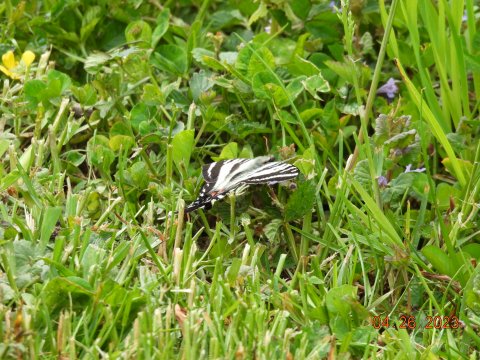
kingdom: Animalia
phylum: Arthropoda
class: Insecta
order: Lepidoptera
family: Papilionidae
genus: Protographium
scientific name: Protographium marcellus
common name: Zebra Swallowtail
